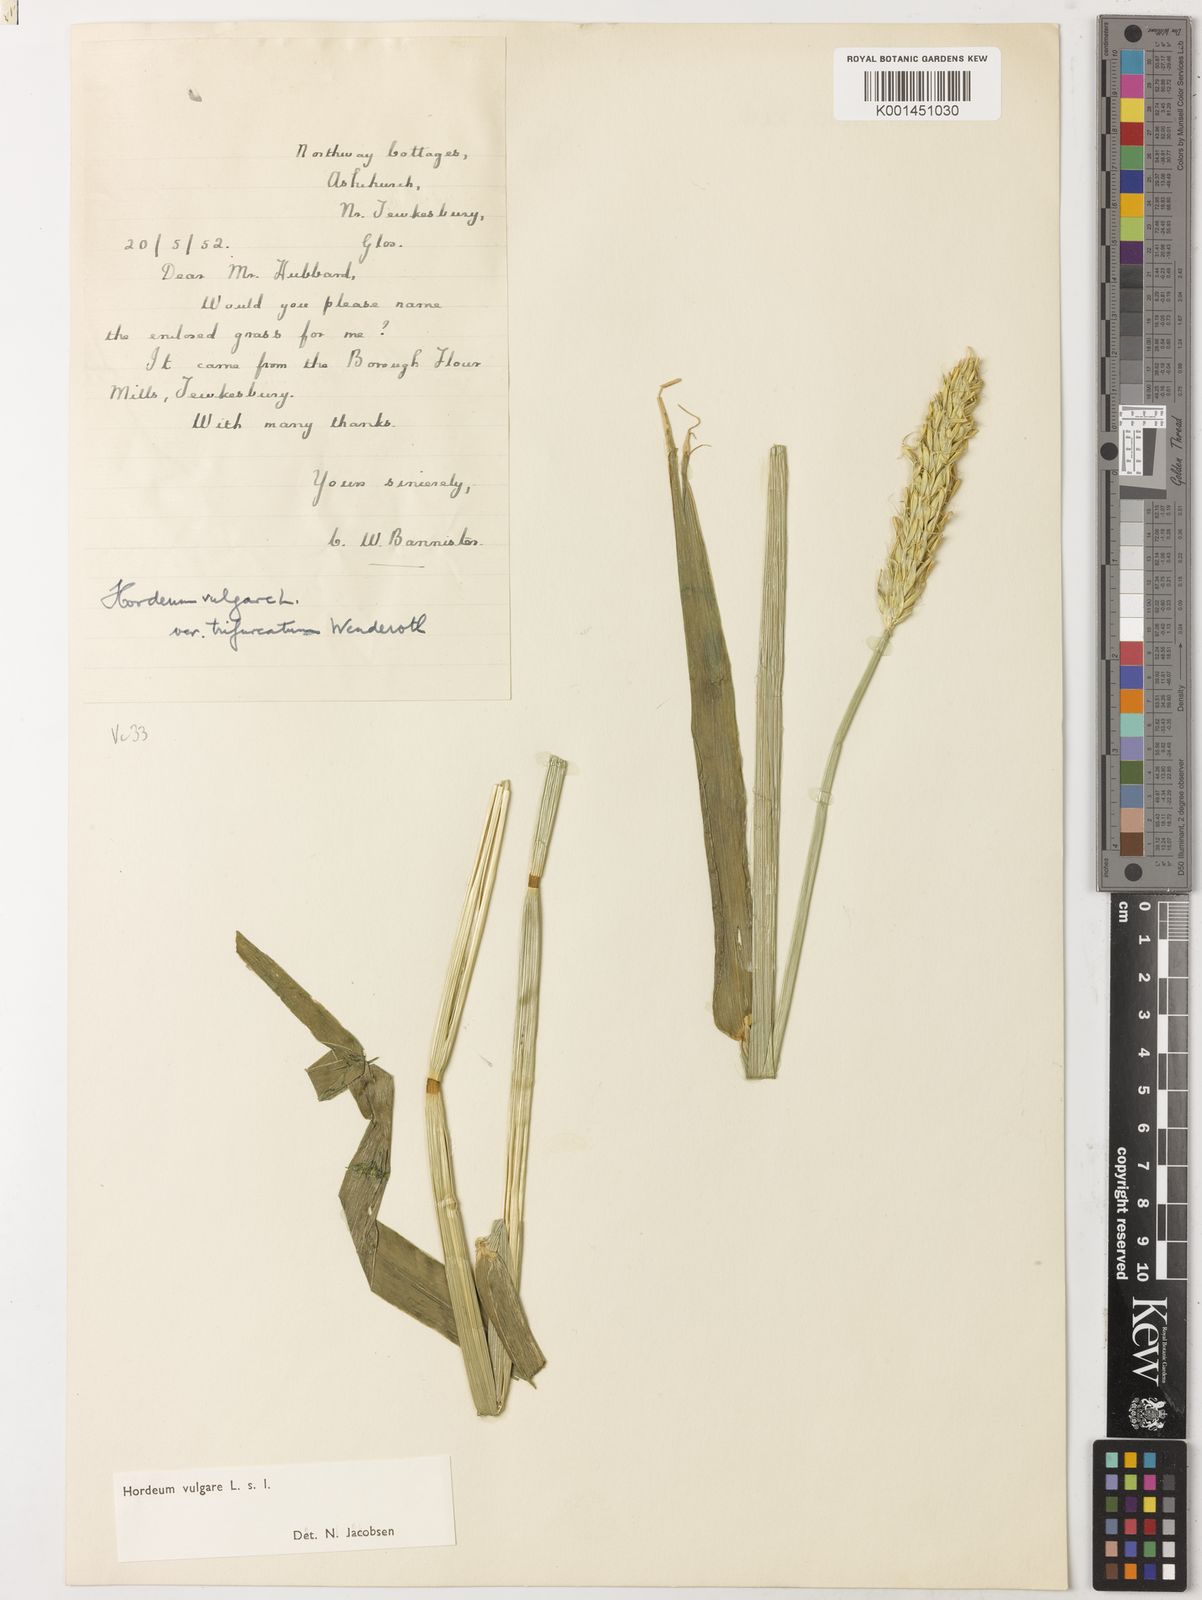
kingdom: Plantae
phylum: Tracheophyta
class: Liliopsida
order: Poales
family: Poaceae
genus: Hordeum
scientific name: Hordeum vulgare
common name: Common barley
